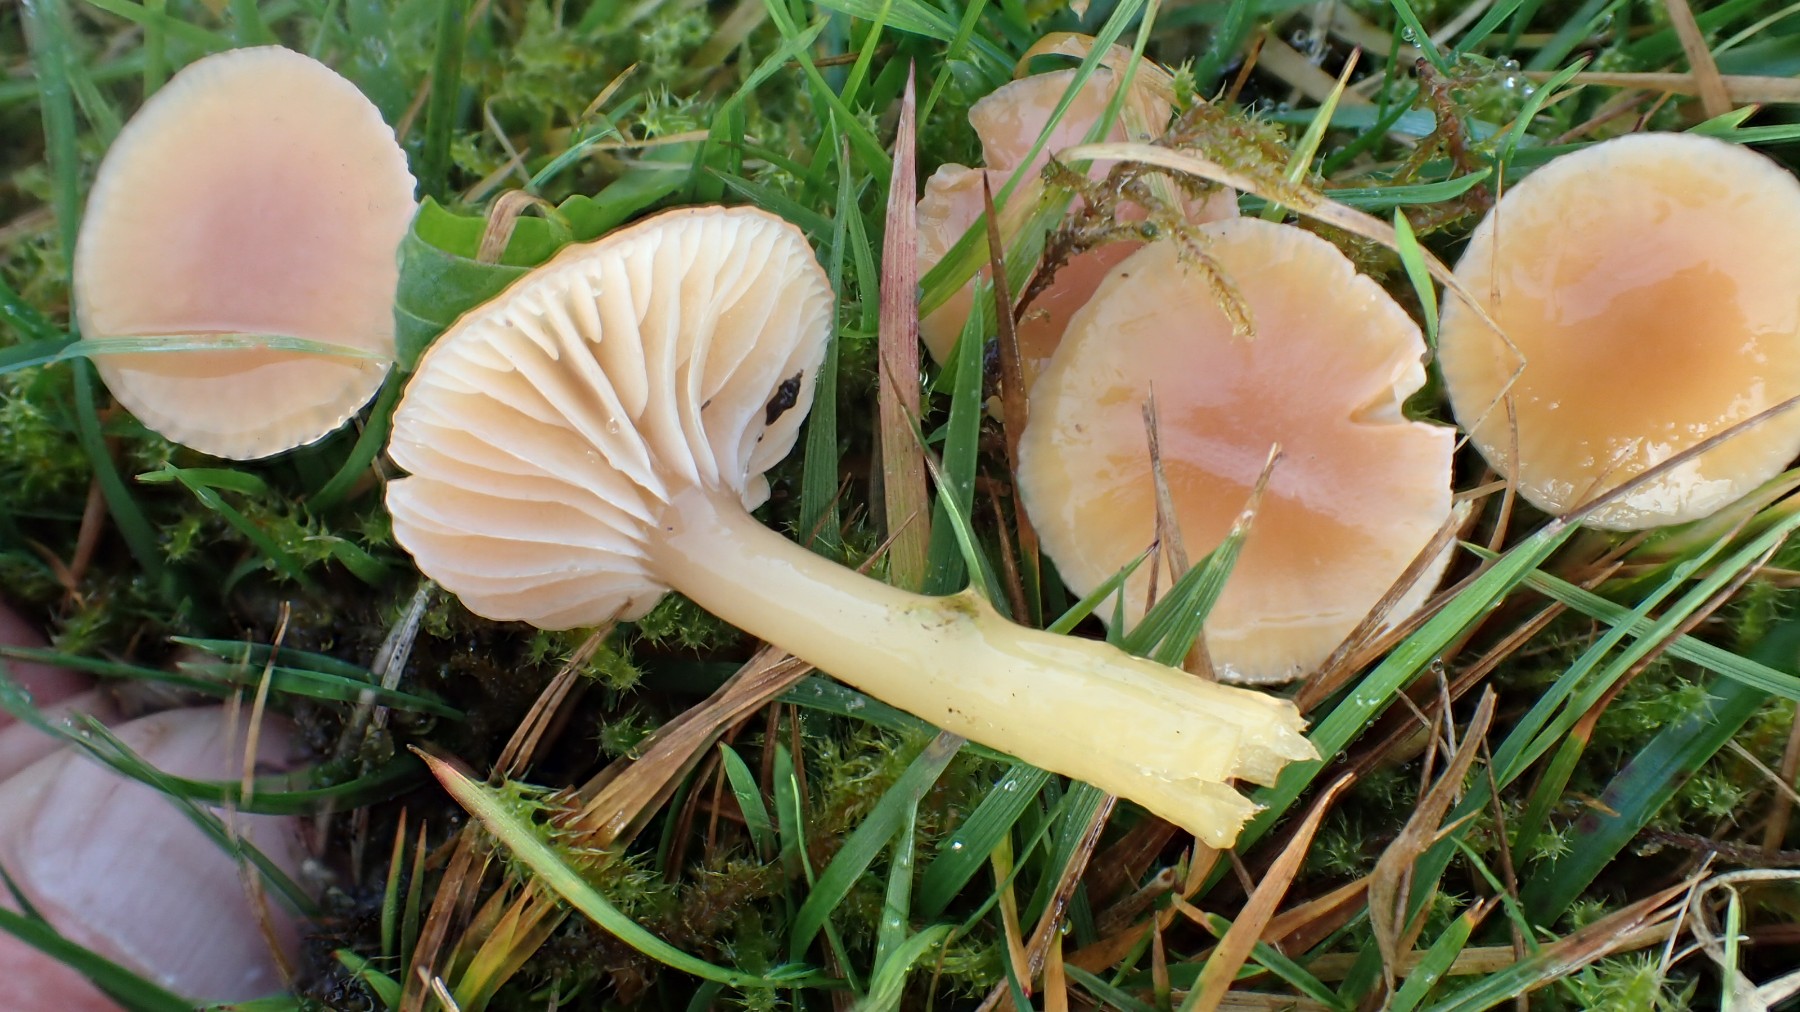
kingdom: Fungi
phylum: Basidiomycota
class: Agaricomycetes
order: Agaricales
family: Hygrophoraceae
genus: Gliophorus
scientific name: Gliophorus laetus
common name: brusk-vokshat
